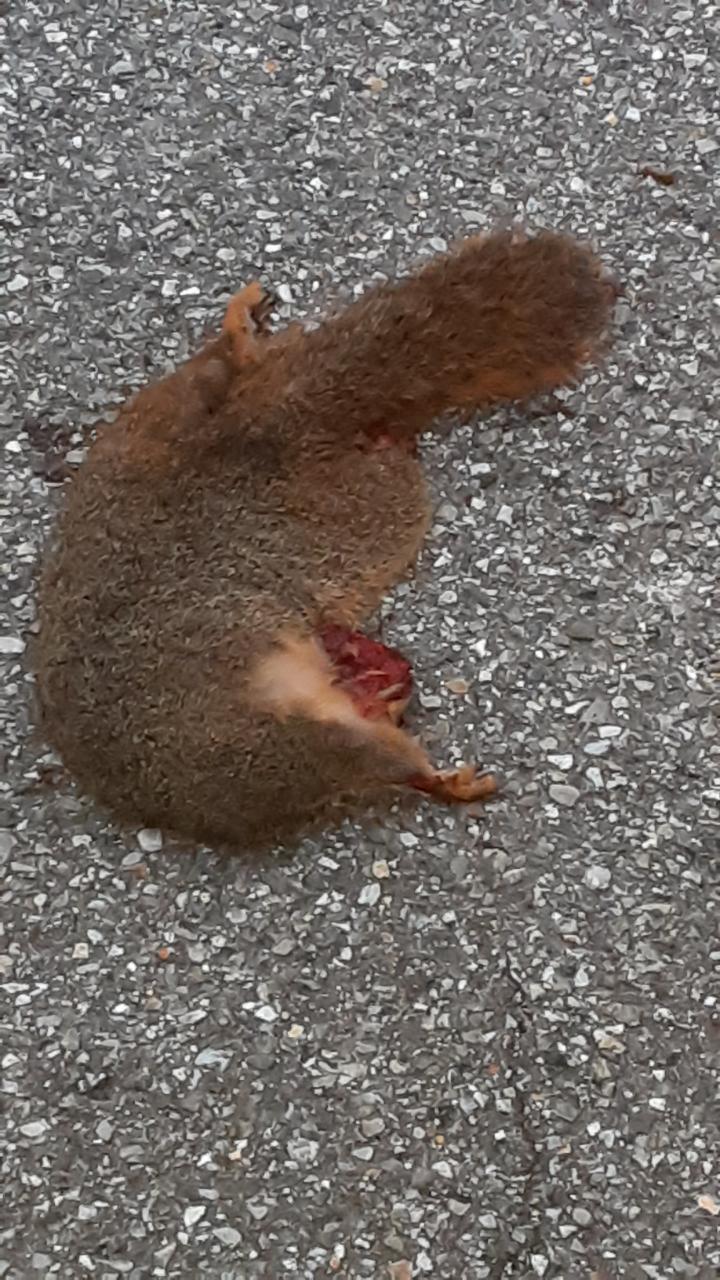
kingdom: Animalia
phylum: Chordata
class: Mammalia
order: Rodentia
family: Sciuridae
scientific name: Sciuridae
